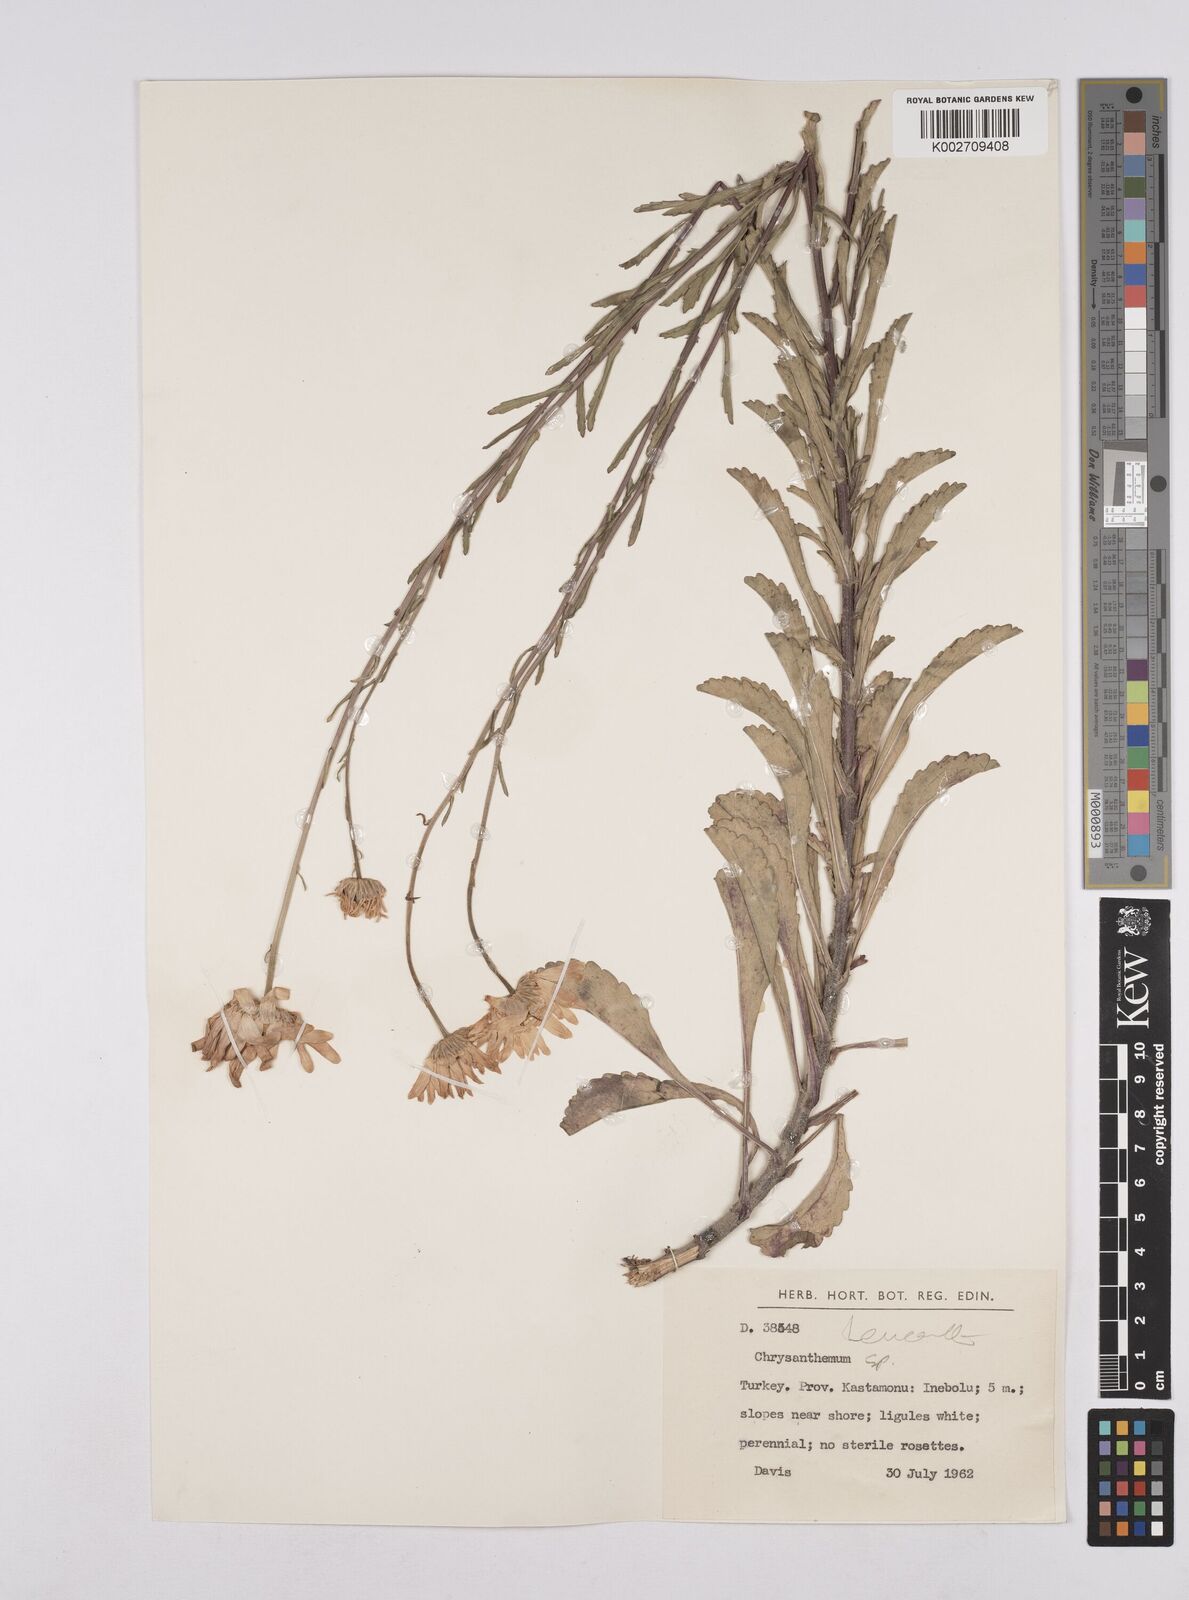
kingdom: Plantae
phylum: Tracheophyta
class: Magnoliopsida
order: Asterales
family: Asteraceae
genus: Leucanthemum
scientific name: Leucanthemum
